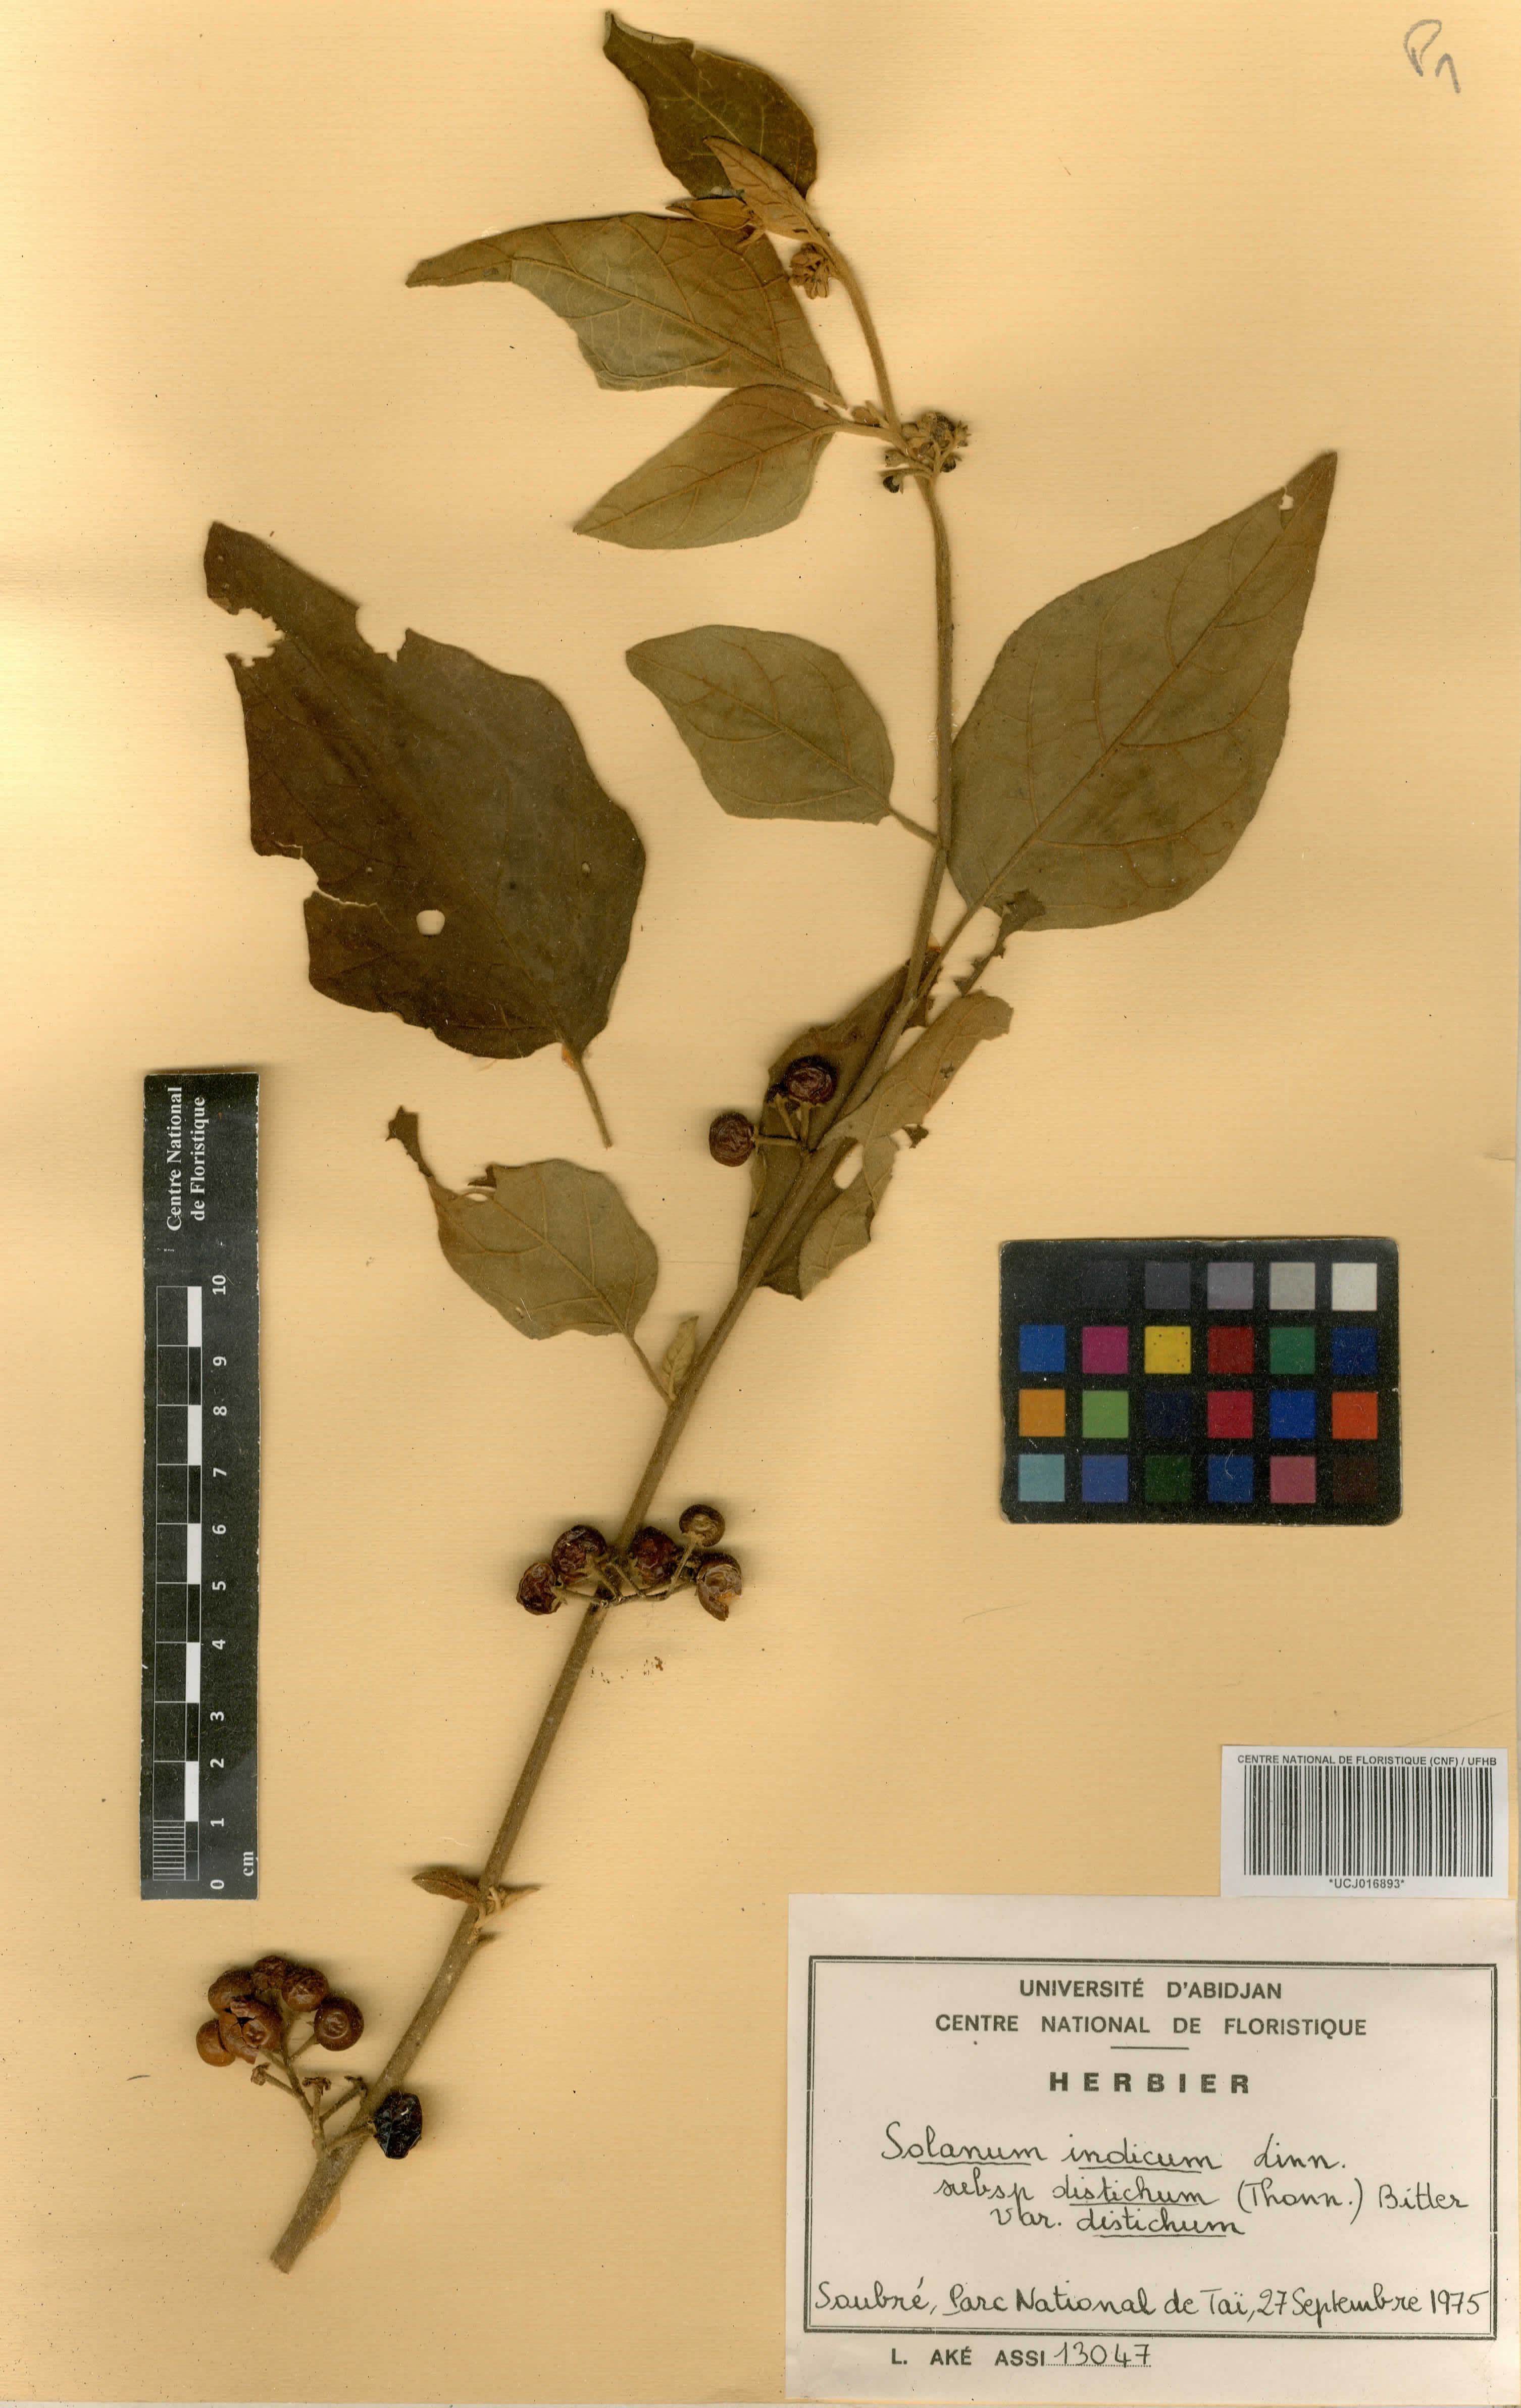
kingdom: Plantae
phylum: Tracheophyta
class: Magnoliopsida
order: Solanales
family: Solanaceae
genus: Solanum
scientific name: Solanum incanum
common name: Bitter apple
